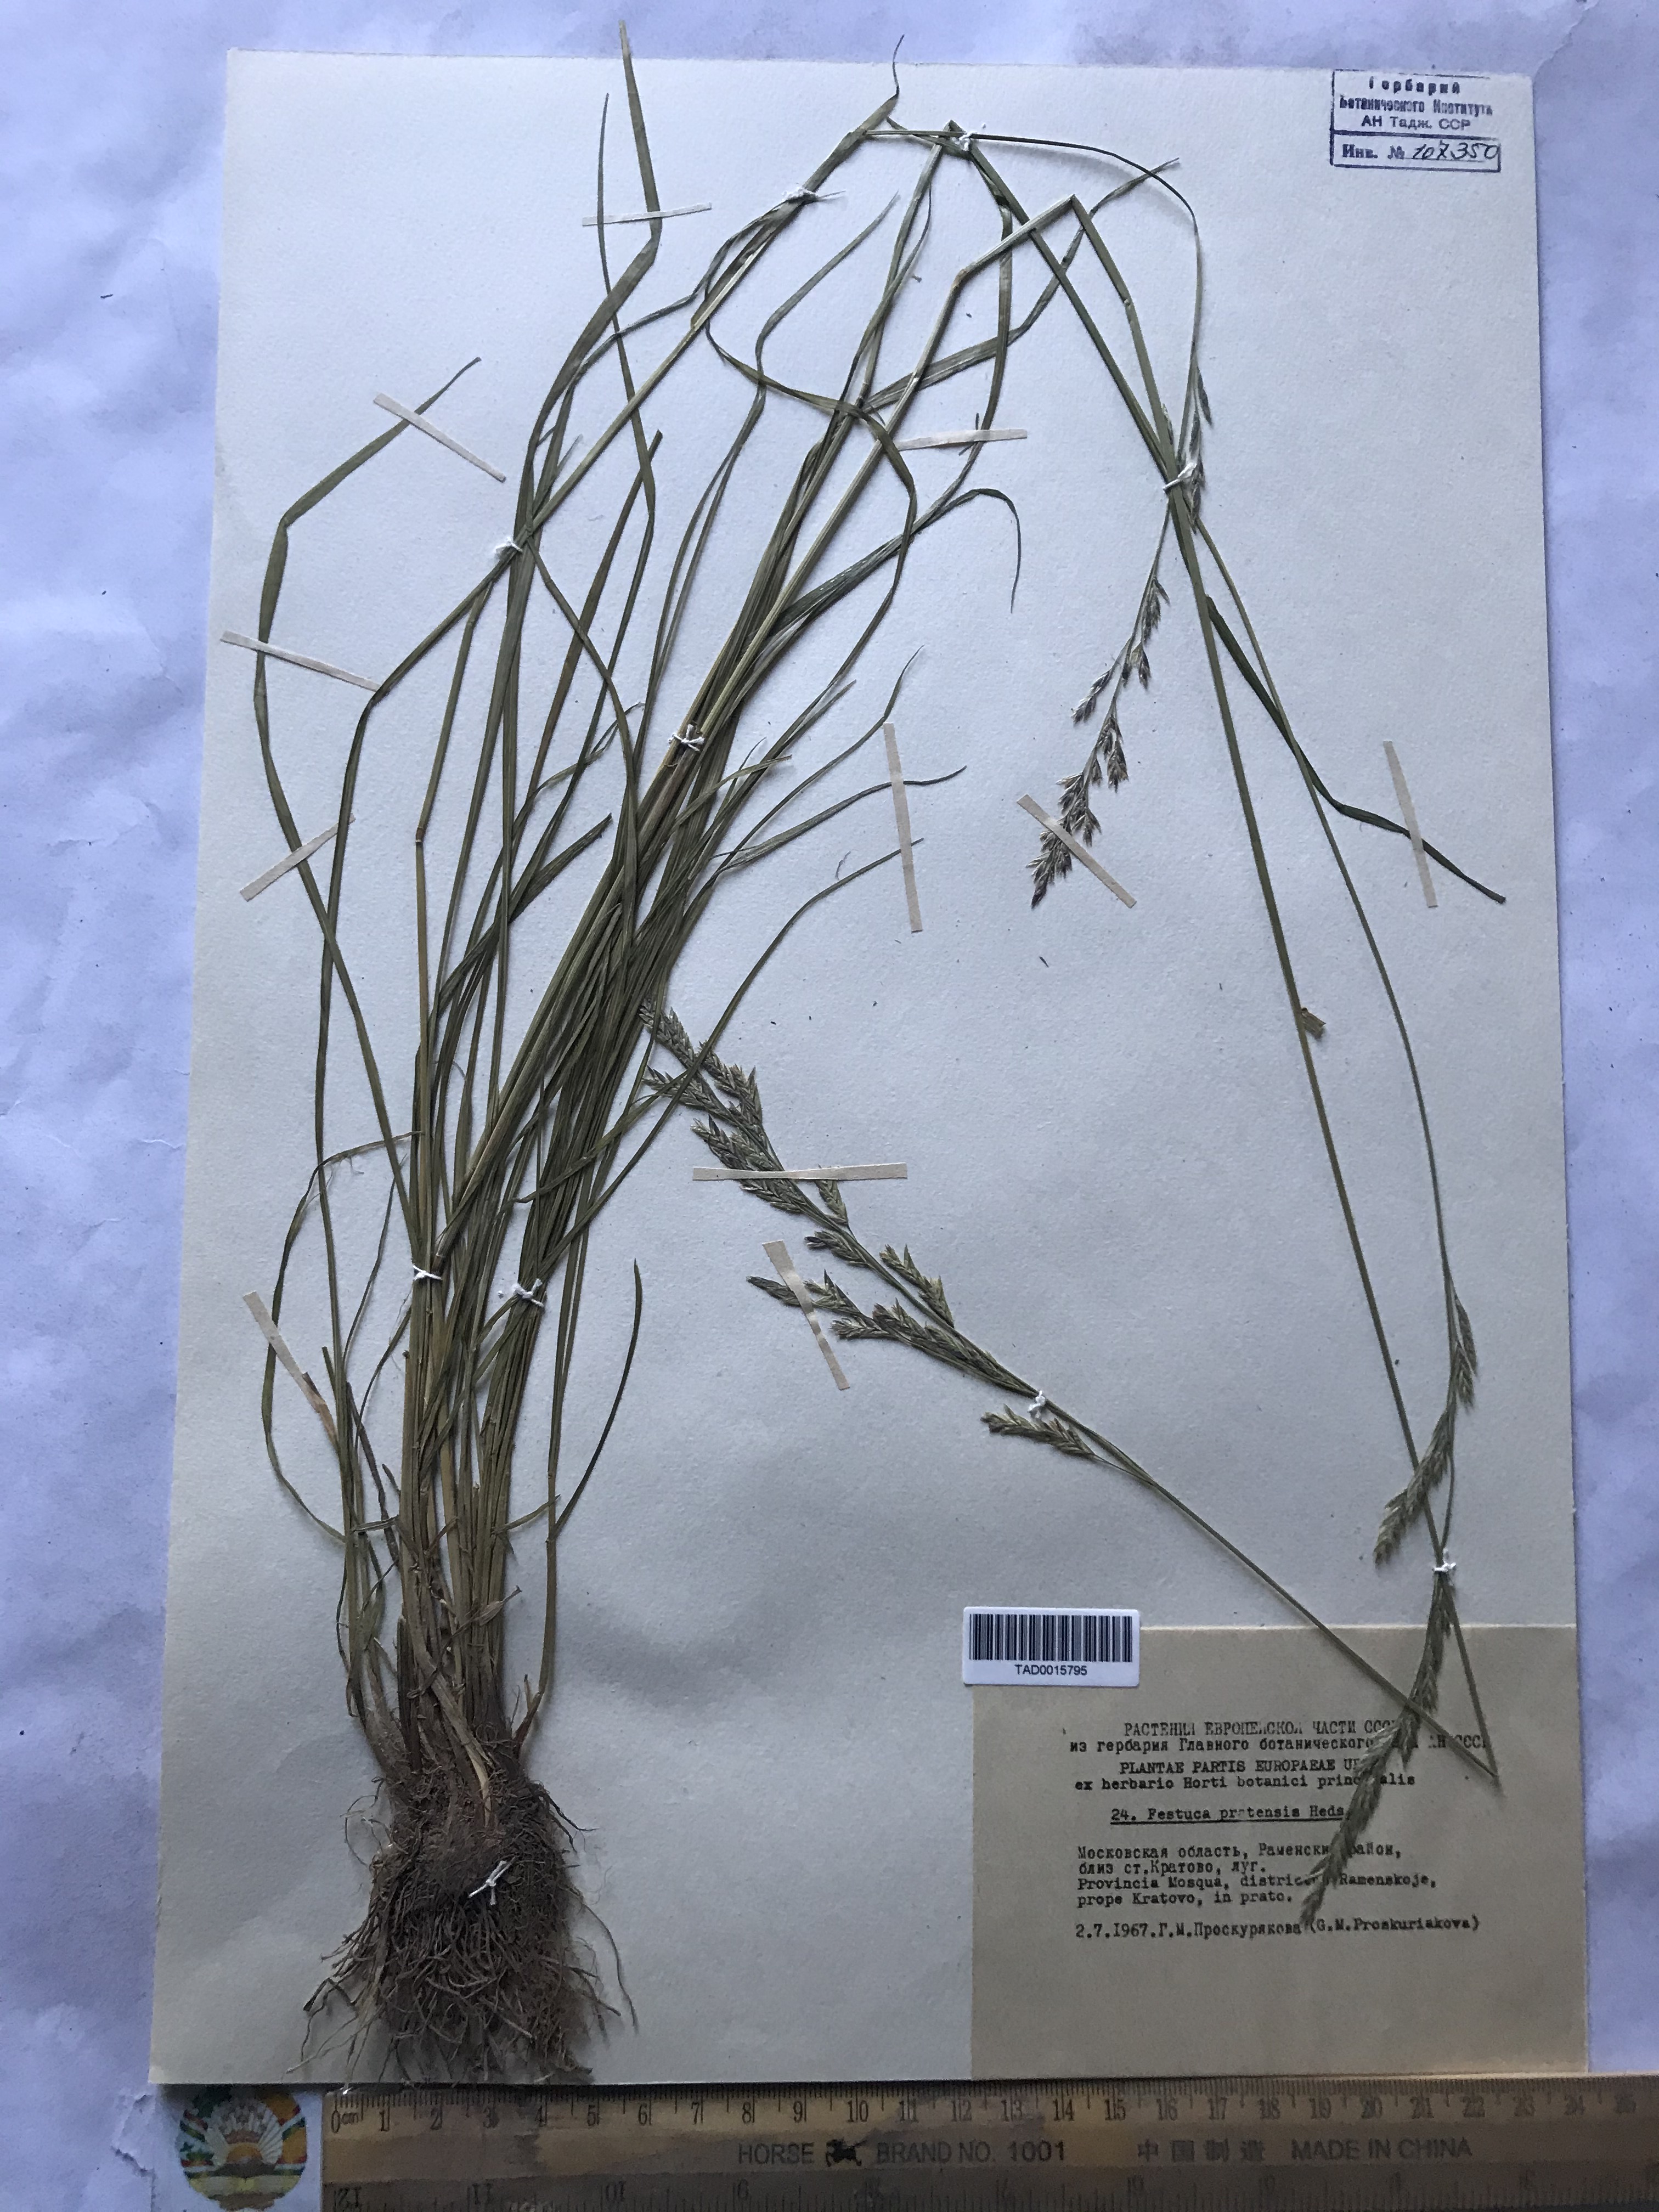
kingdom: Plantae
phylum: Tracheophyta
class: Liliopsida
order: Poales
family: Poaceae
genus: Lolium
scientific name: Lolium pratense
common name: Dover grass
